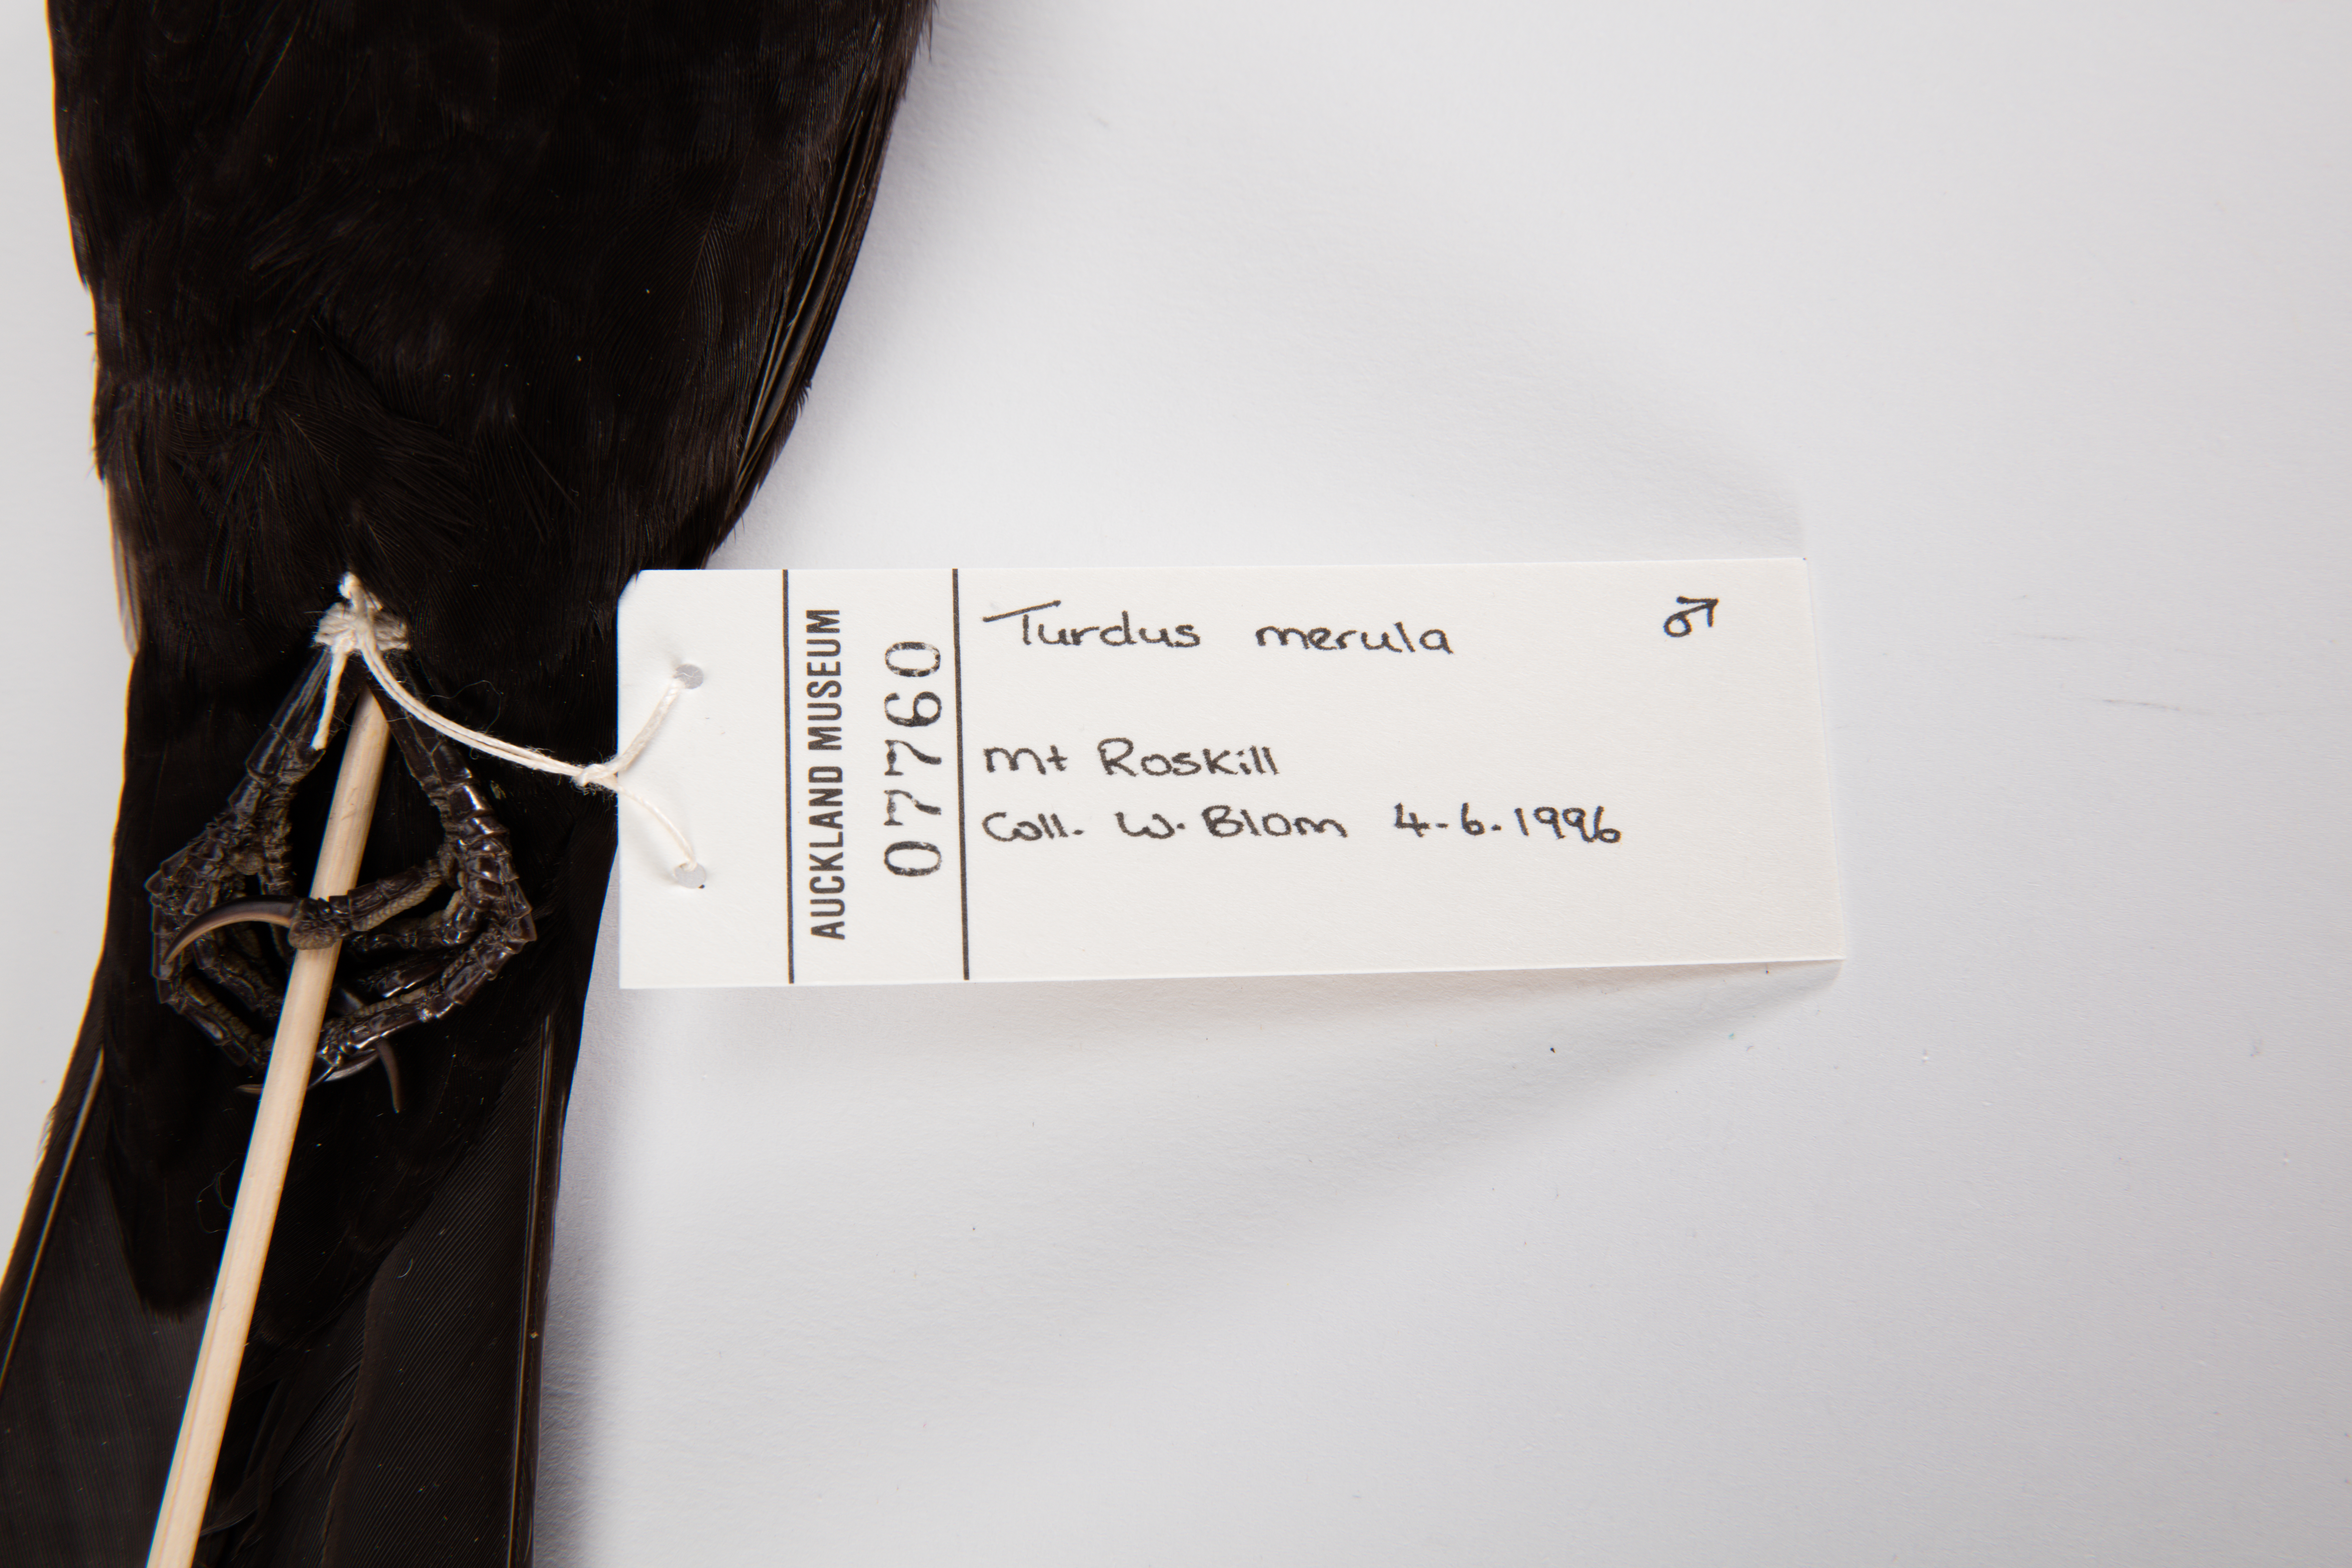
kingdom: Animalia
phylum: Chordata
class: Aves
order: Passeriformes
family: Turdidae
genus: Turdus
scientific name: Turdus merula
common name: Common blackbird
